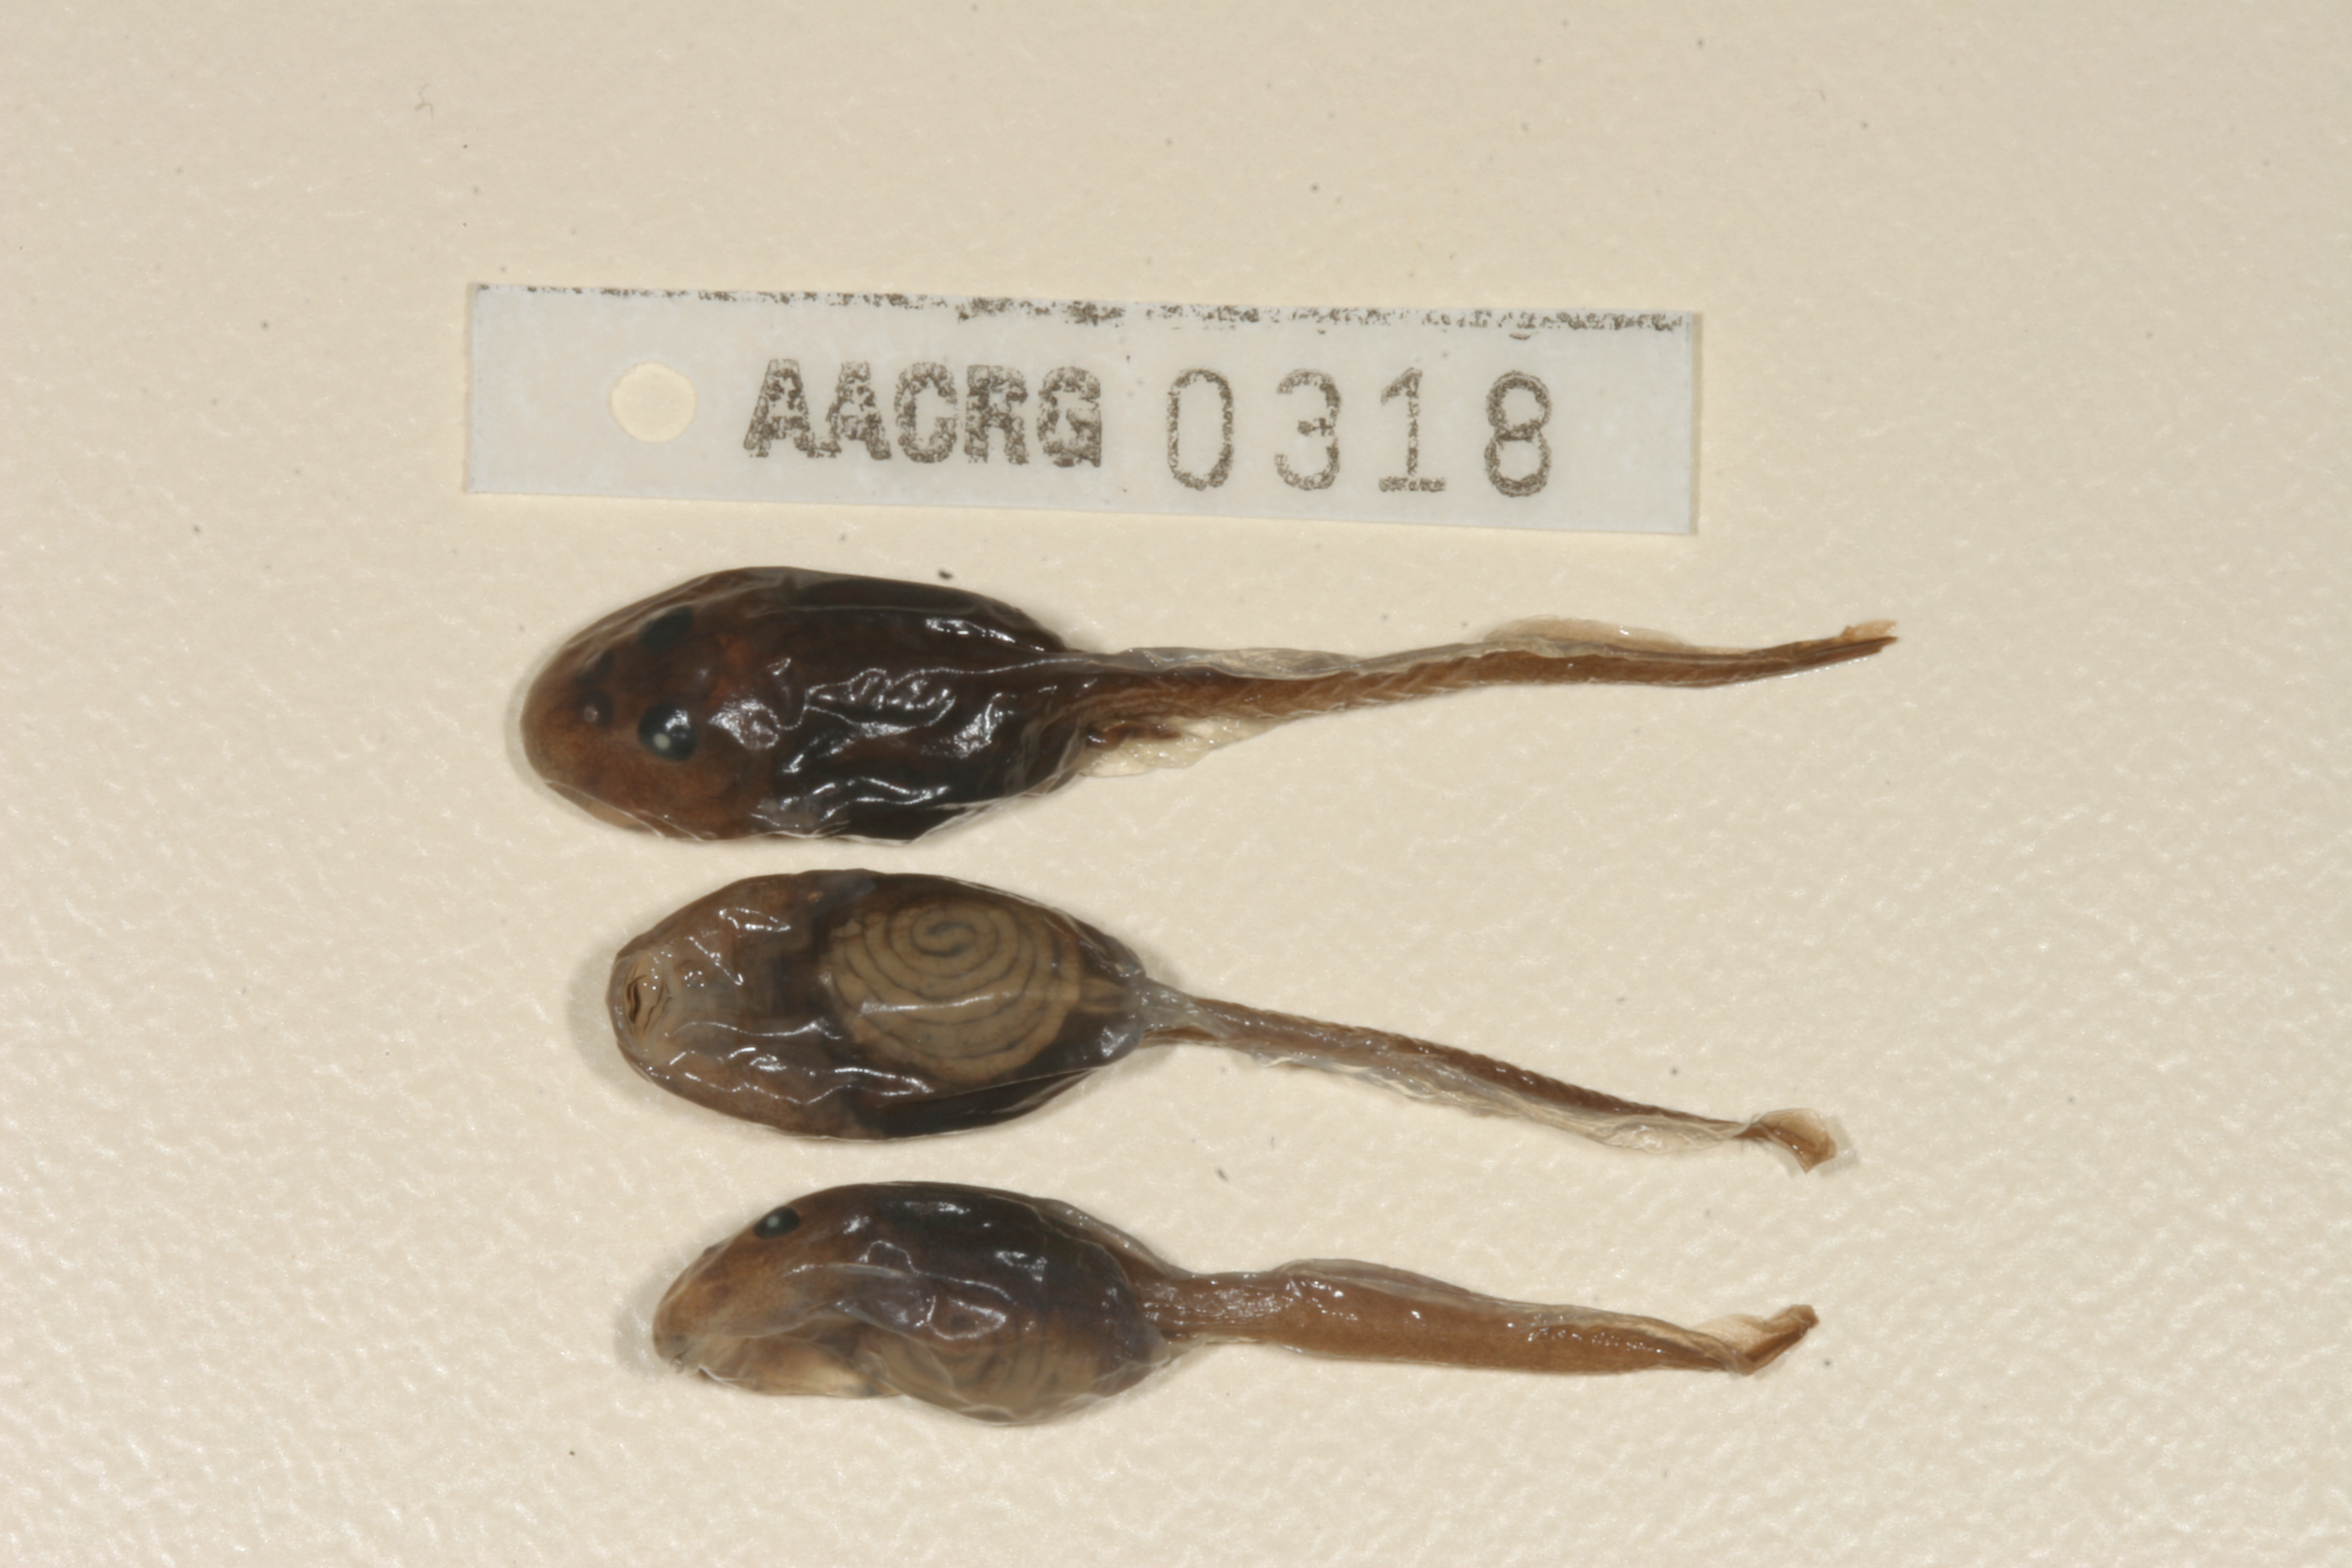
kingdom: Animalia
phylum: Chordata
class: Amphibia
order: Anura
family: Pyxicephalidae
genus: Pyxicephalus
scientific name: Pyxicephalus adspersus
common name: African bullfrog
